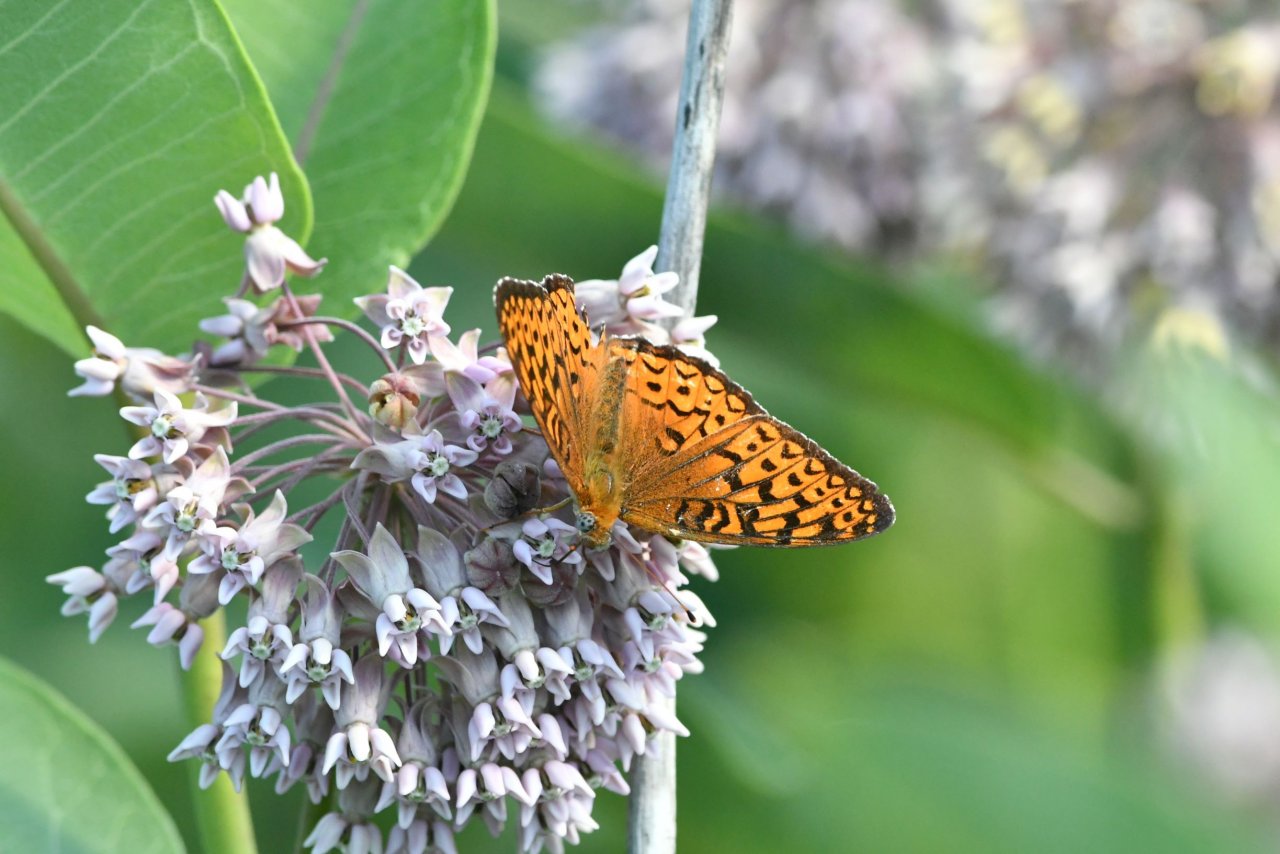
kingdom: Animalia
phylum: Arthropoda
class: Insecta
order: Lepidoptera
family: Nymphalidae
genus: Speyeria
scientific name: Speyeria atlantis
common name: Atlantis Fritillary
